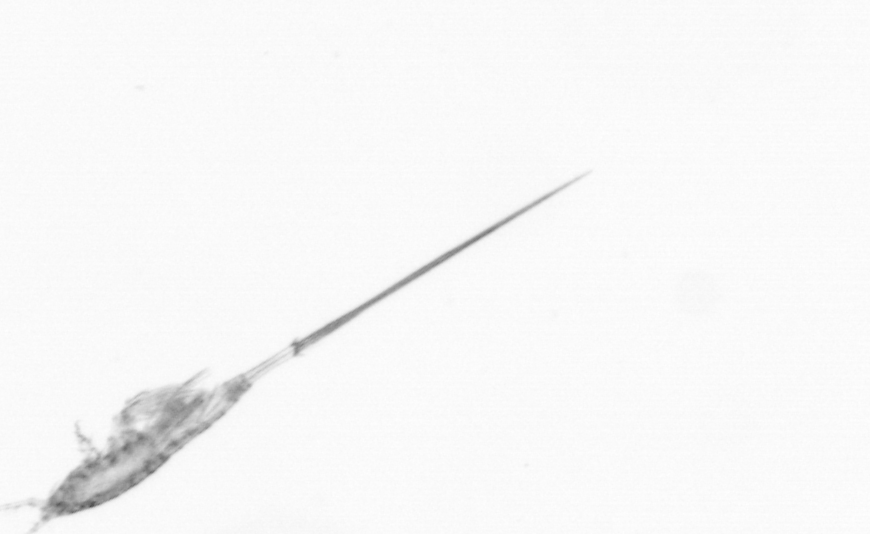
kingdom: Animalia
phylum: Arthropoda
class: Copepoda
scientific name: Copepoda
